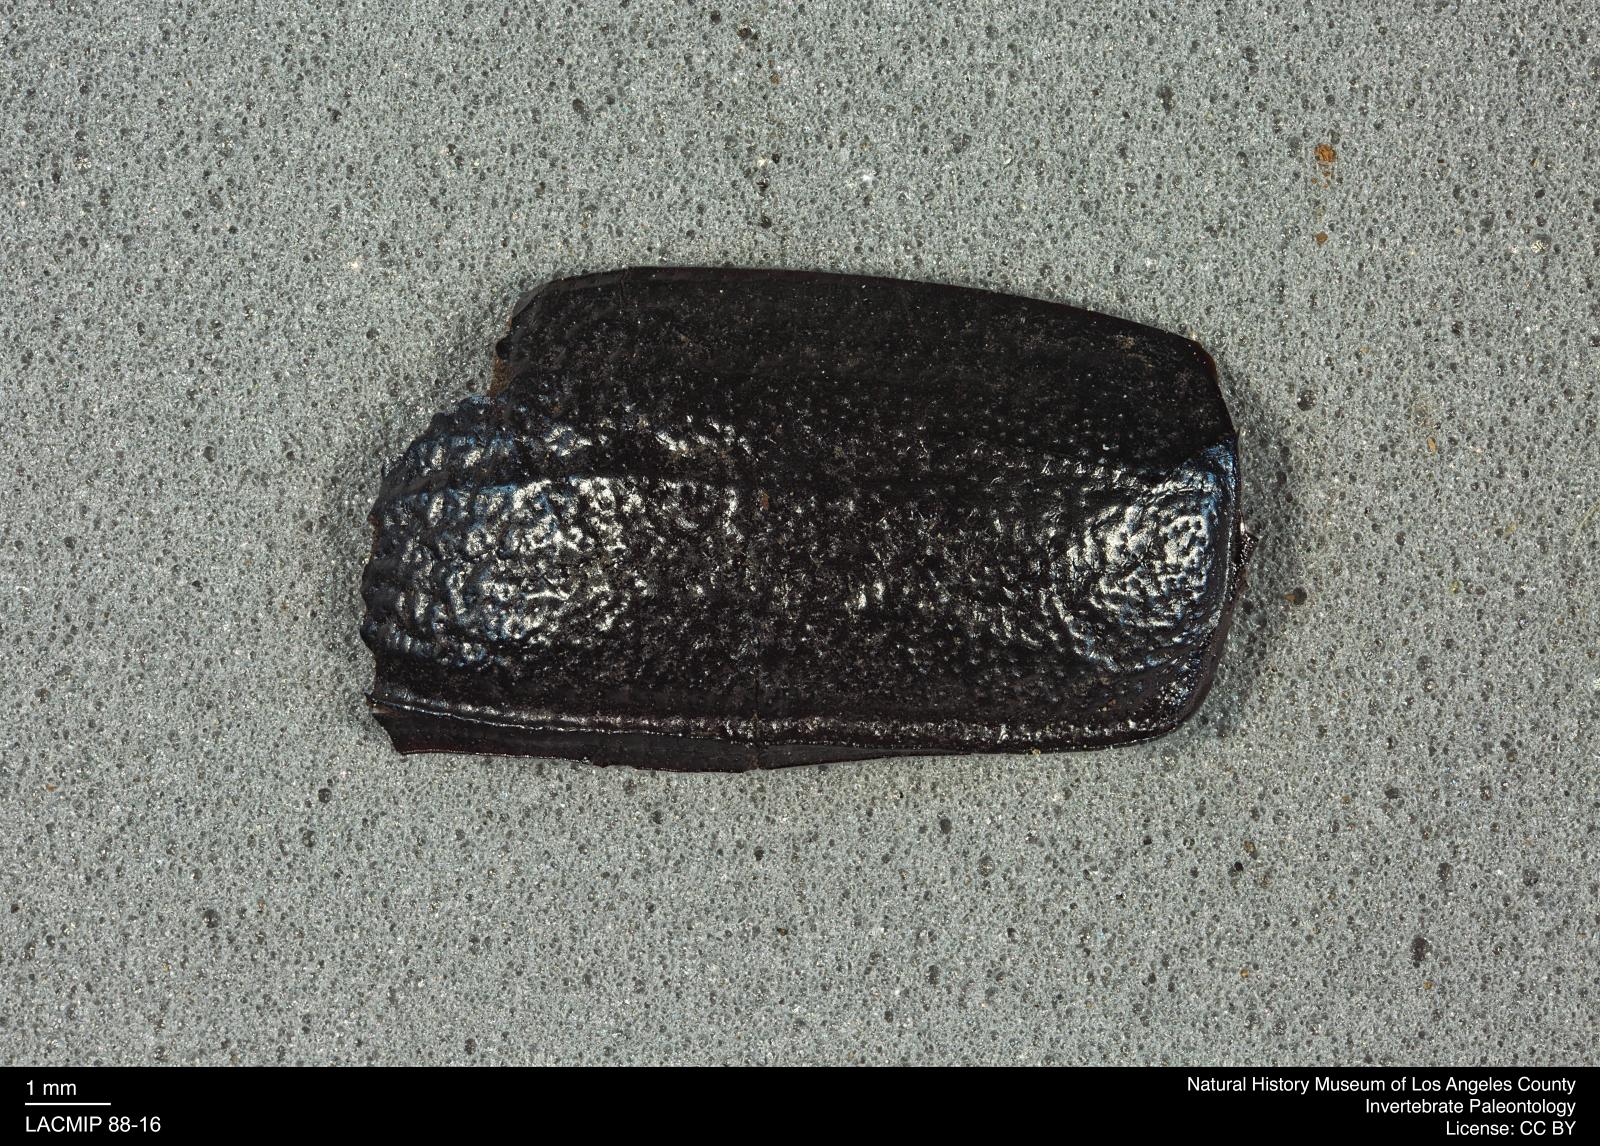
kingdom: Animalia
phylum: Arthropoda
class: Insecta
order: Coleoptera
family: Tenebrionidae
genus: Coniontis
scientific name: Coniontis abdominalis
